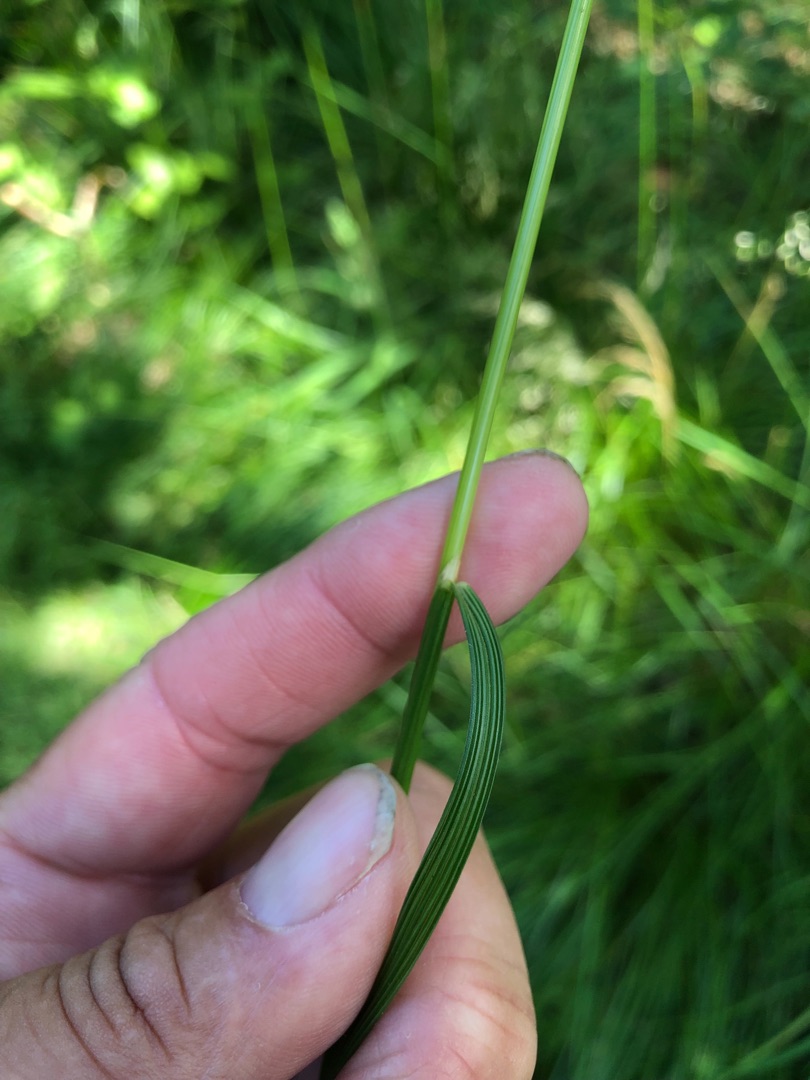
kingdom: Plantae
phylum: Tracheophyta
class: Liliopsida
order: Poales
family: Poaceae
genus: Deschampsia
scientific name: Deschampsia cespitosa
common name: Mose-bunke
